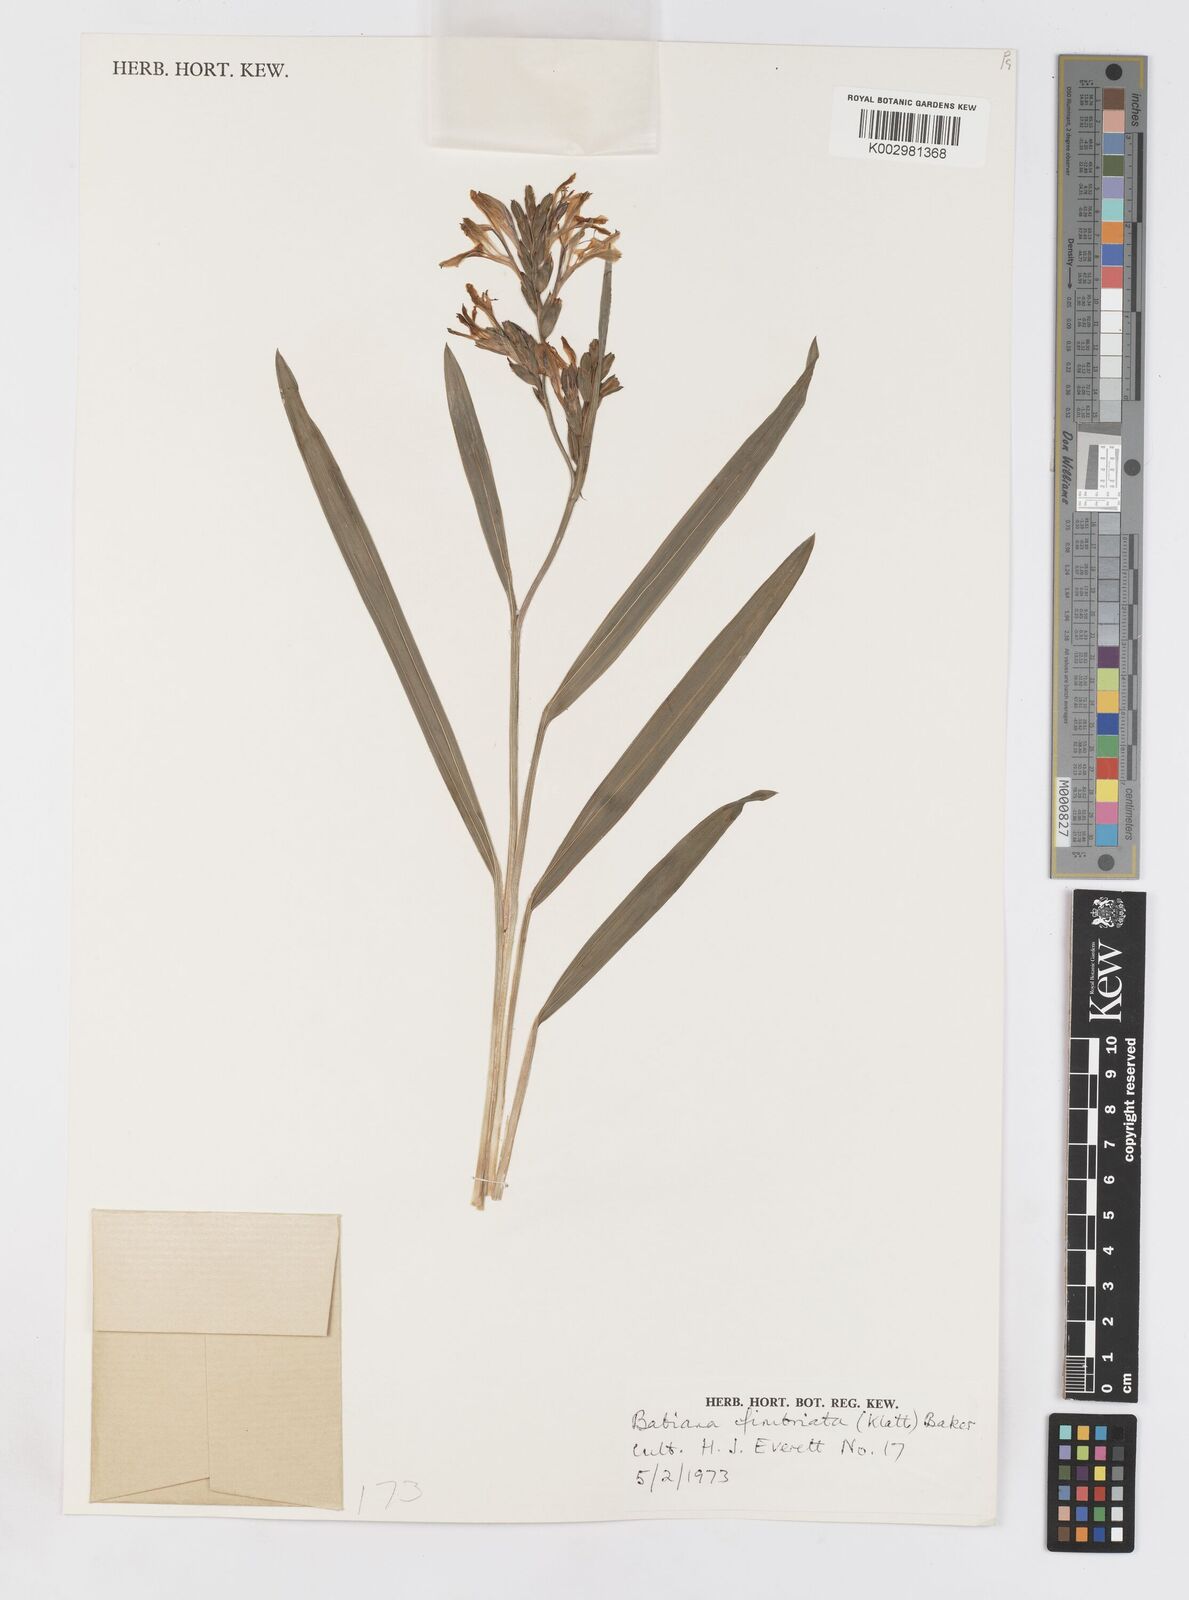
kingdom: Plantae
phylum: Tracheophyta
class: Liliopsida
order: Asparagales
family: Iridaceae
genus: Babiana
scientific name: Babiana fimbriata
